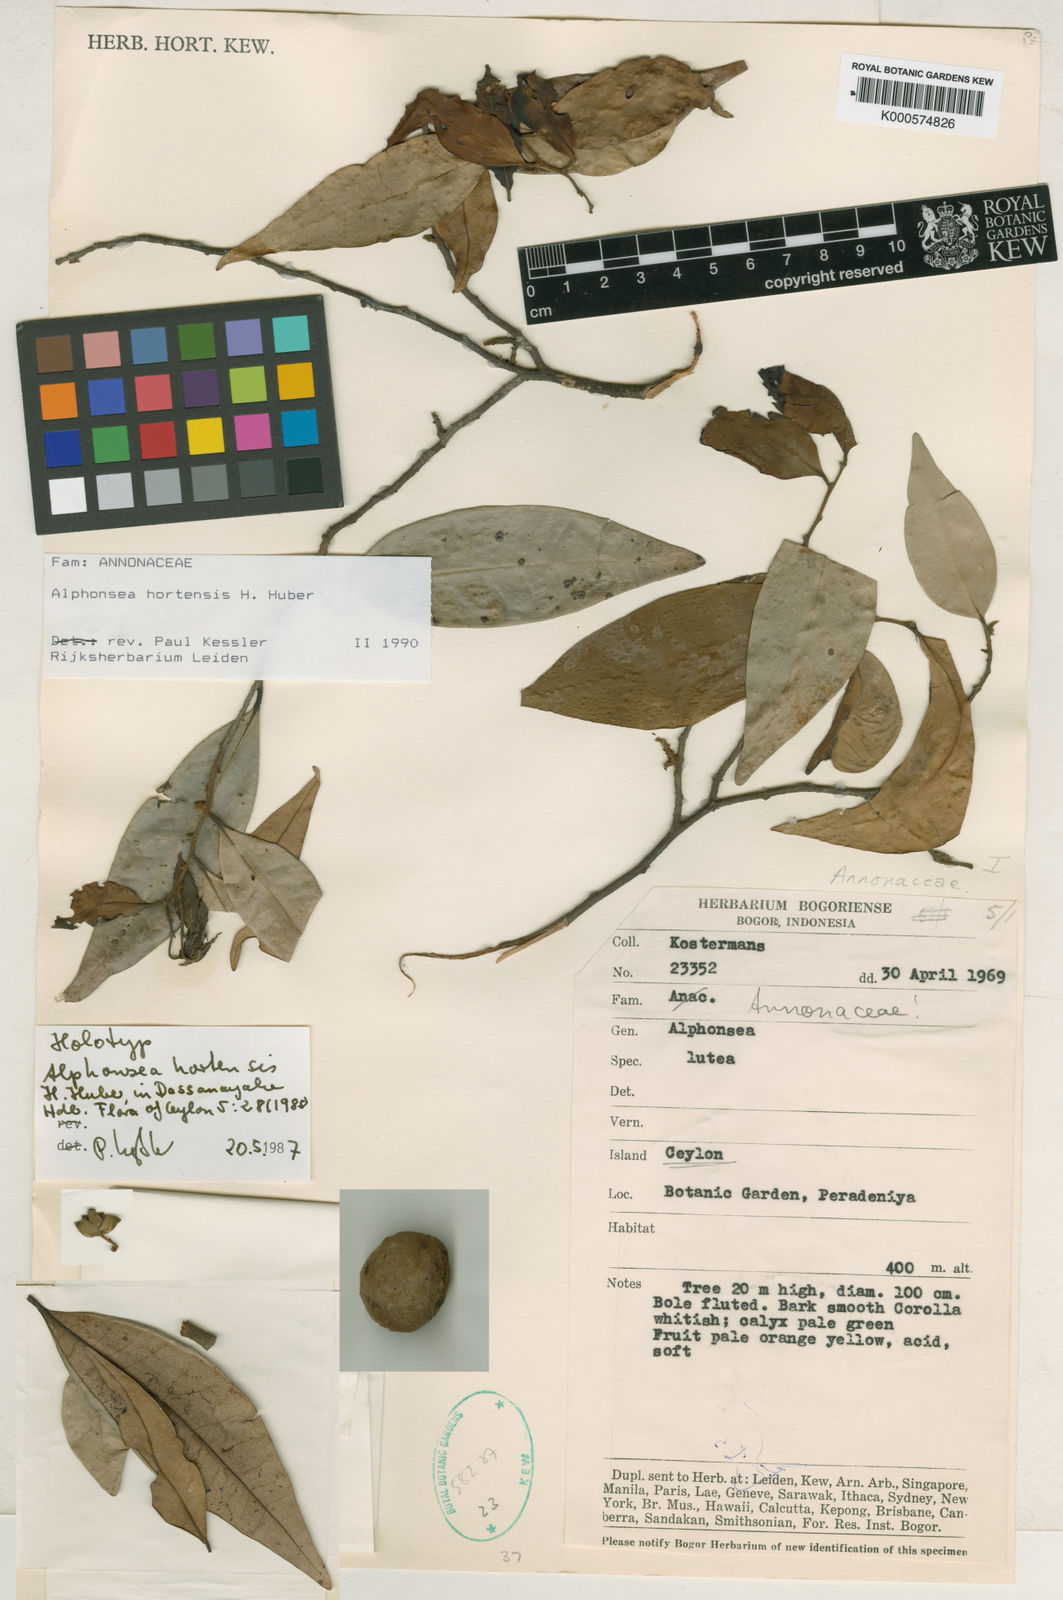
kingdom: Plantae
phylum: Tracheophyta
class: Magnoliopsida
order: Magnoliales
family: Annonaceae
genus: Alphonsea
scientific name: Alphonsea hortensis
